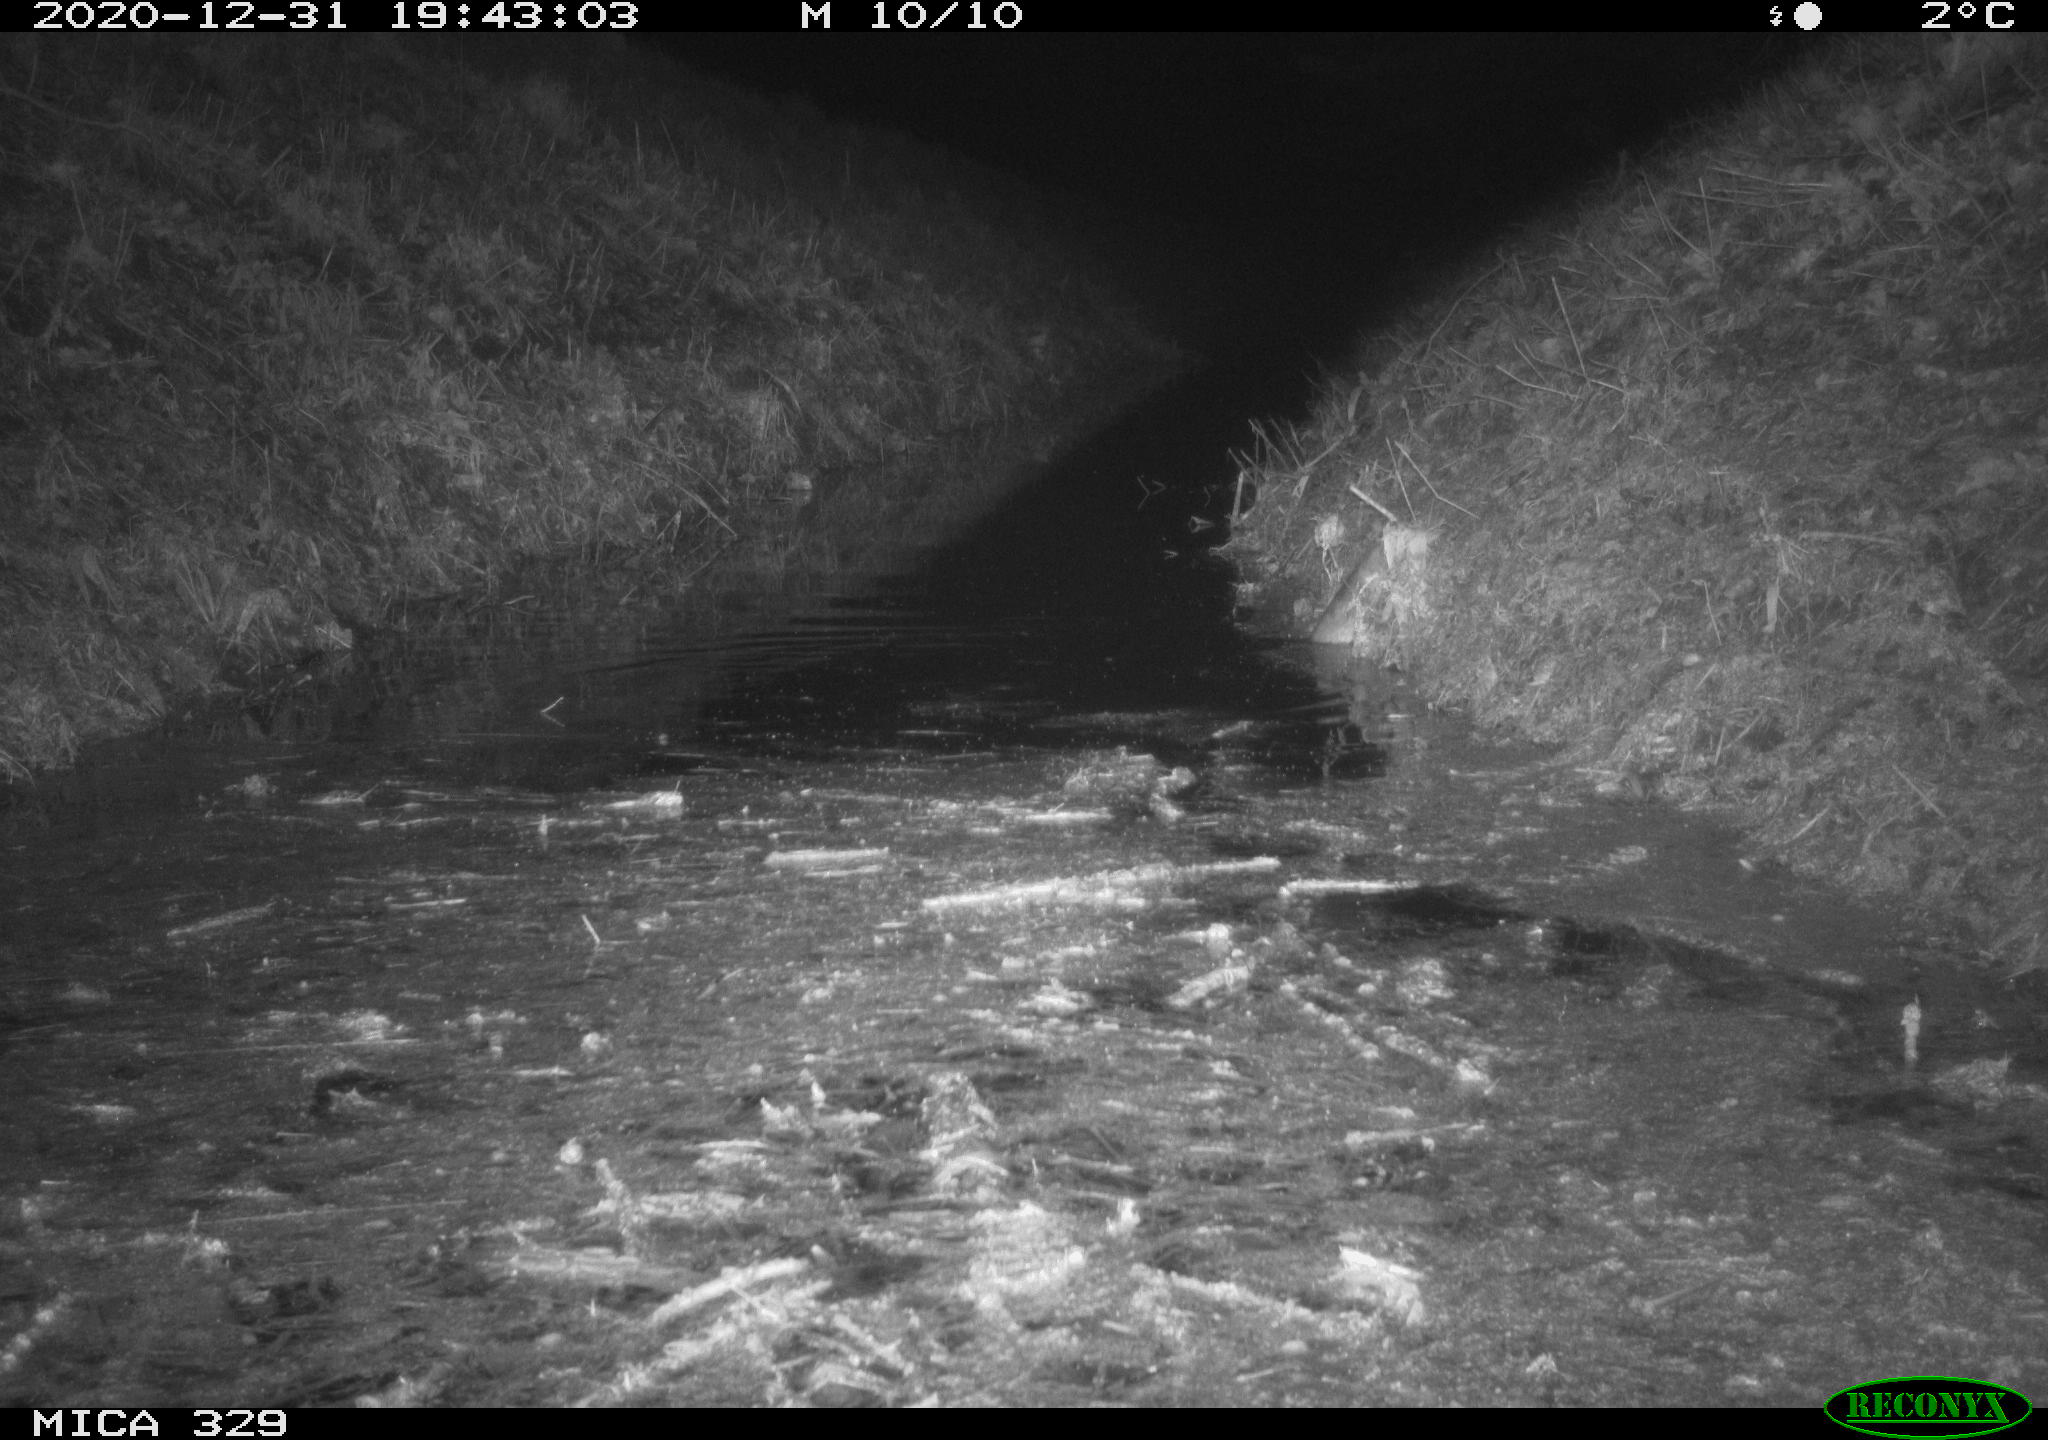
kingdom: Animalia
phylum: Chordata
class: Mammalia
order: Rodentia
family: Muridae
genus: Rattus
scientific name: Rattus norvegicus
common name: Brown rat
